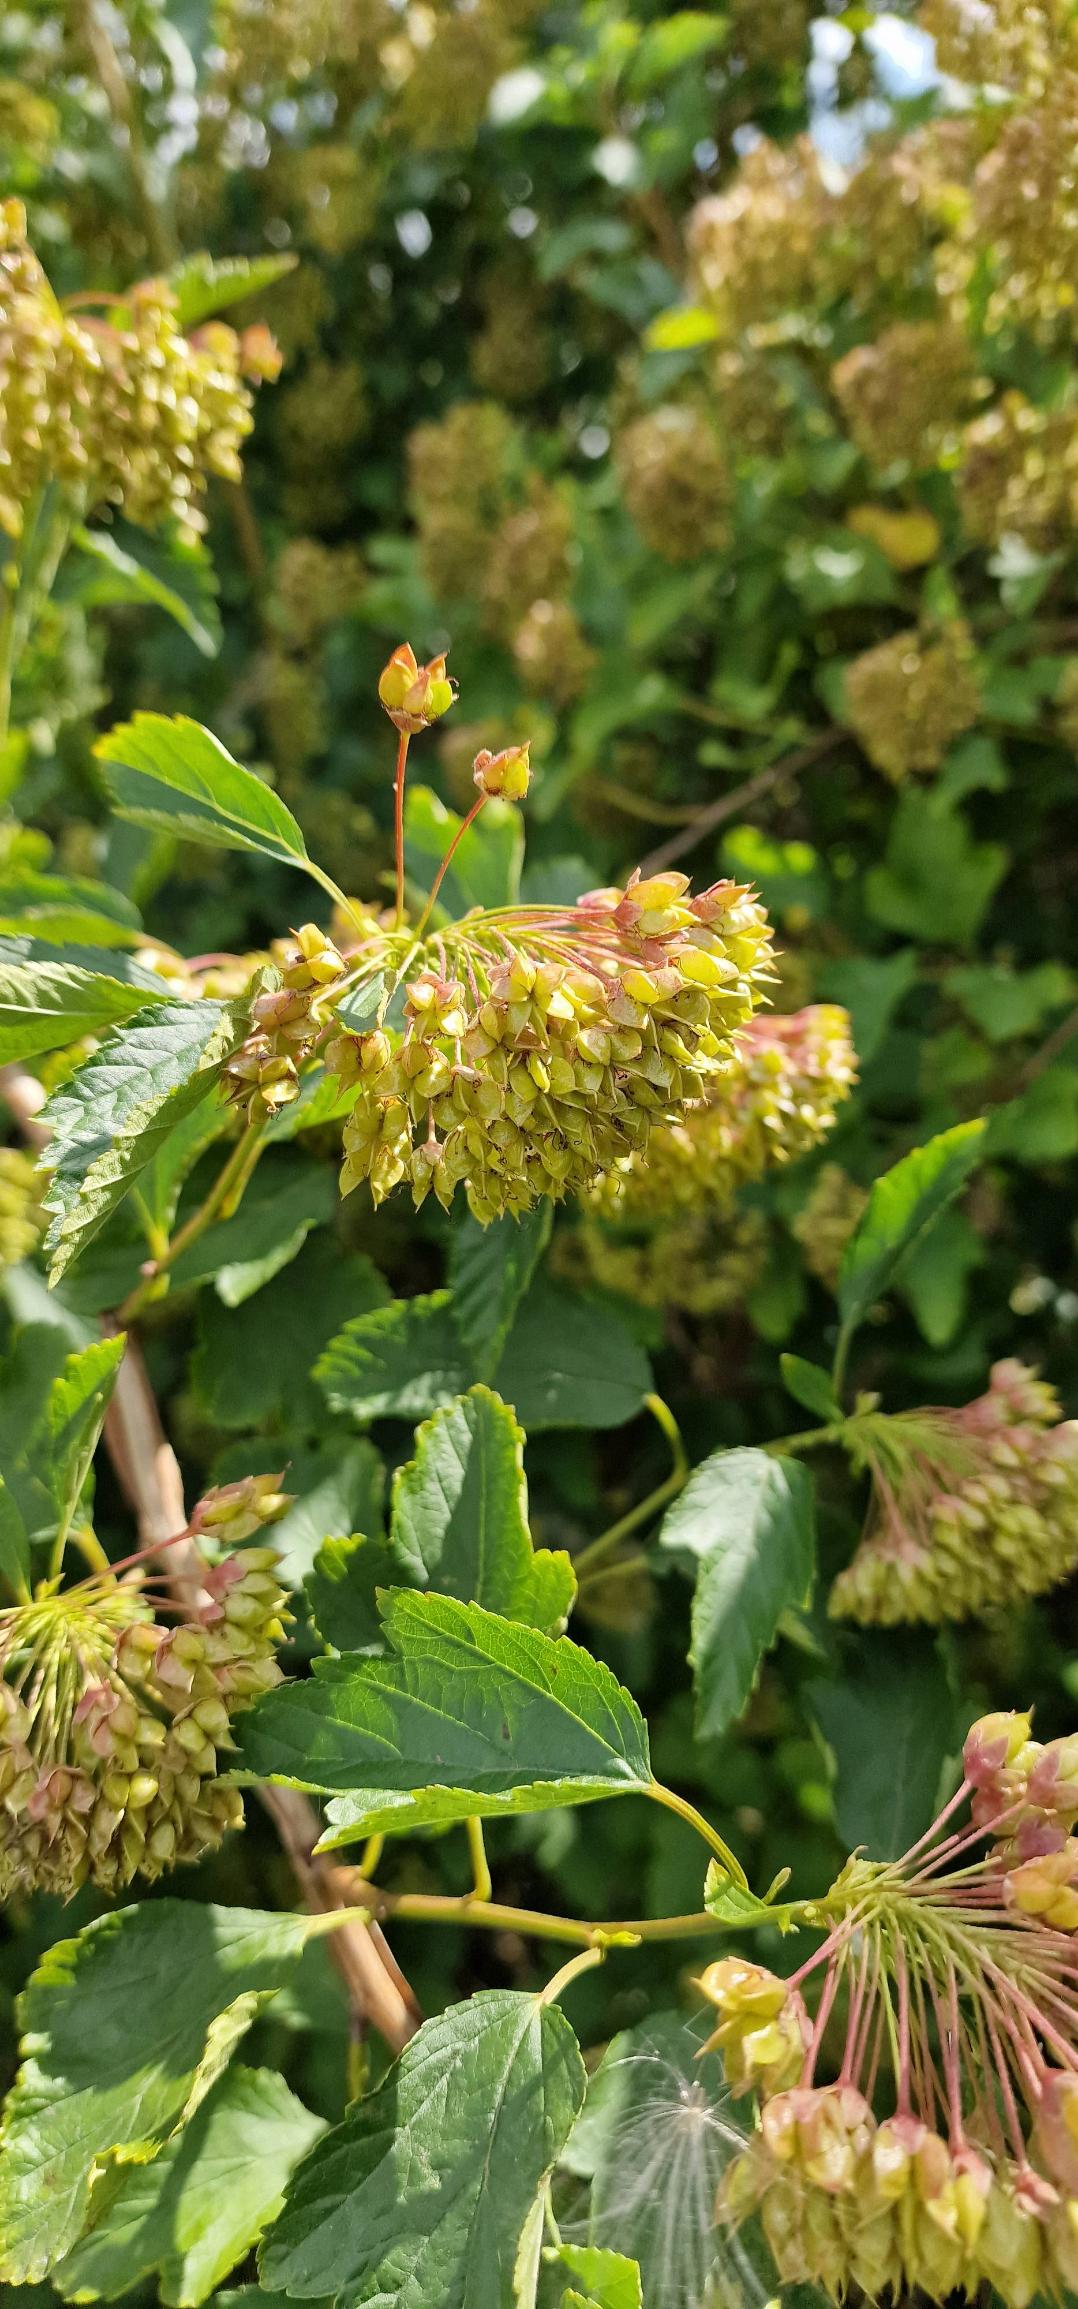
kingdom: Plantae
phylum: Tracheophyta
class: Magnoliopsida
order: Rosales
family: Rosaceae
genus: Physocarpus
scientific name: Physocarpus opulifolius
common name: Almindelig blærespiræa
